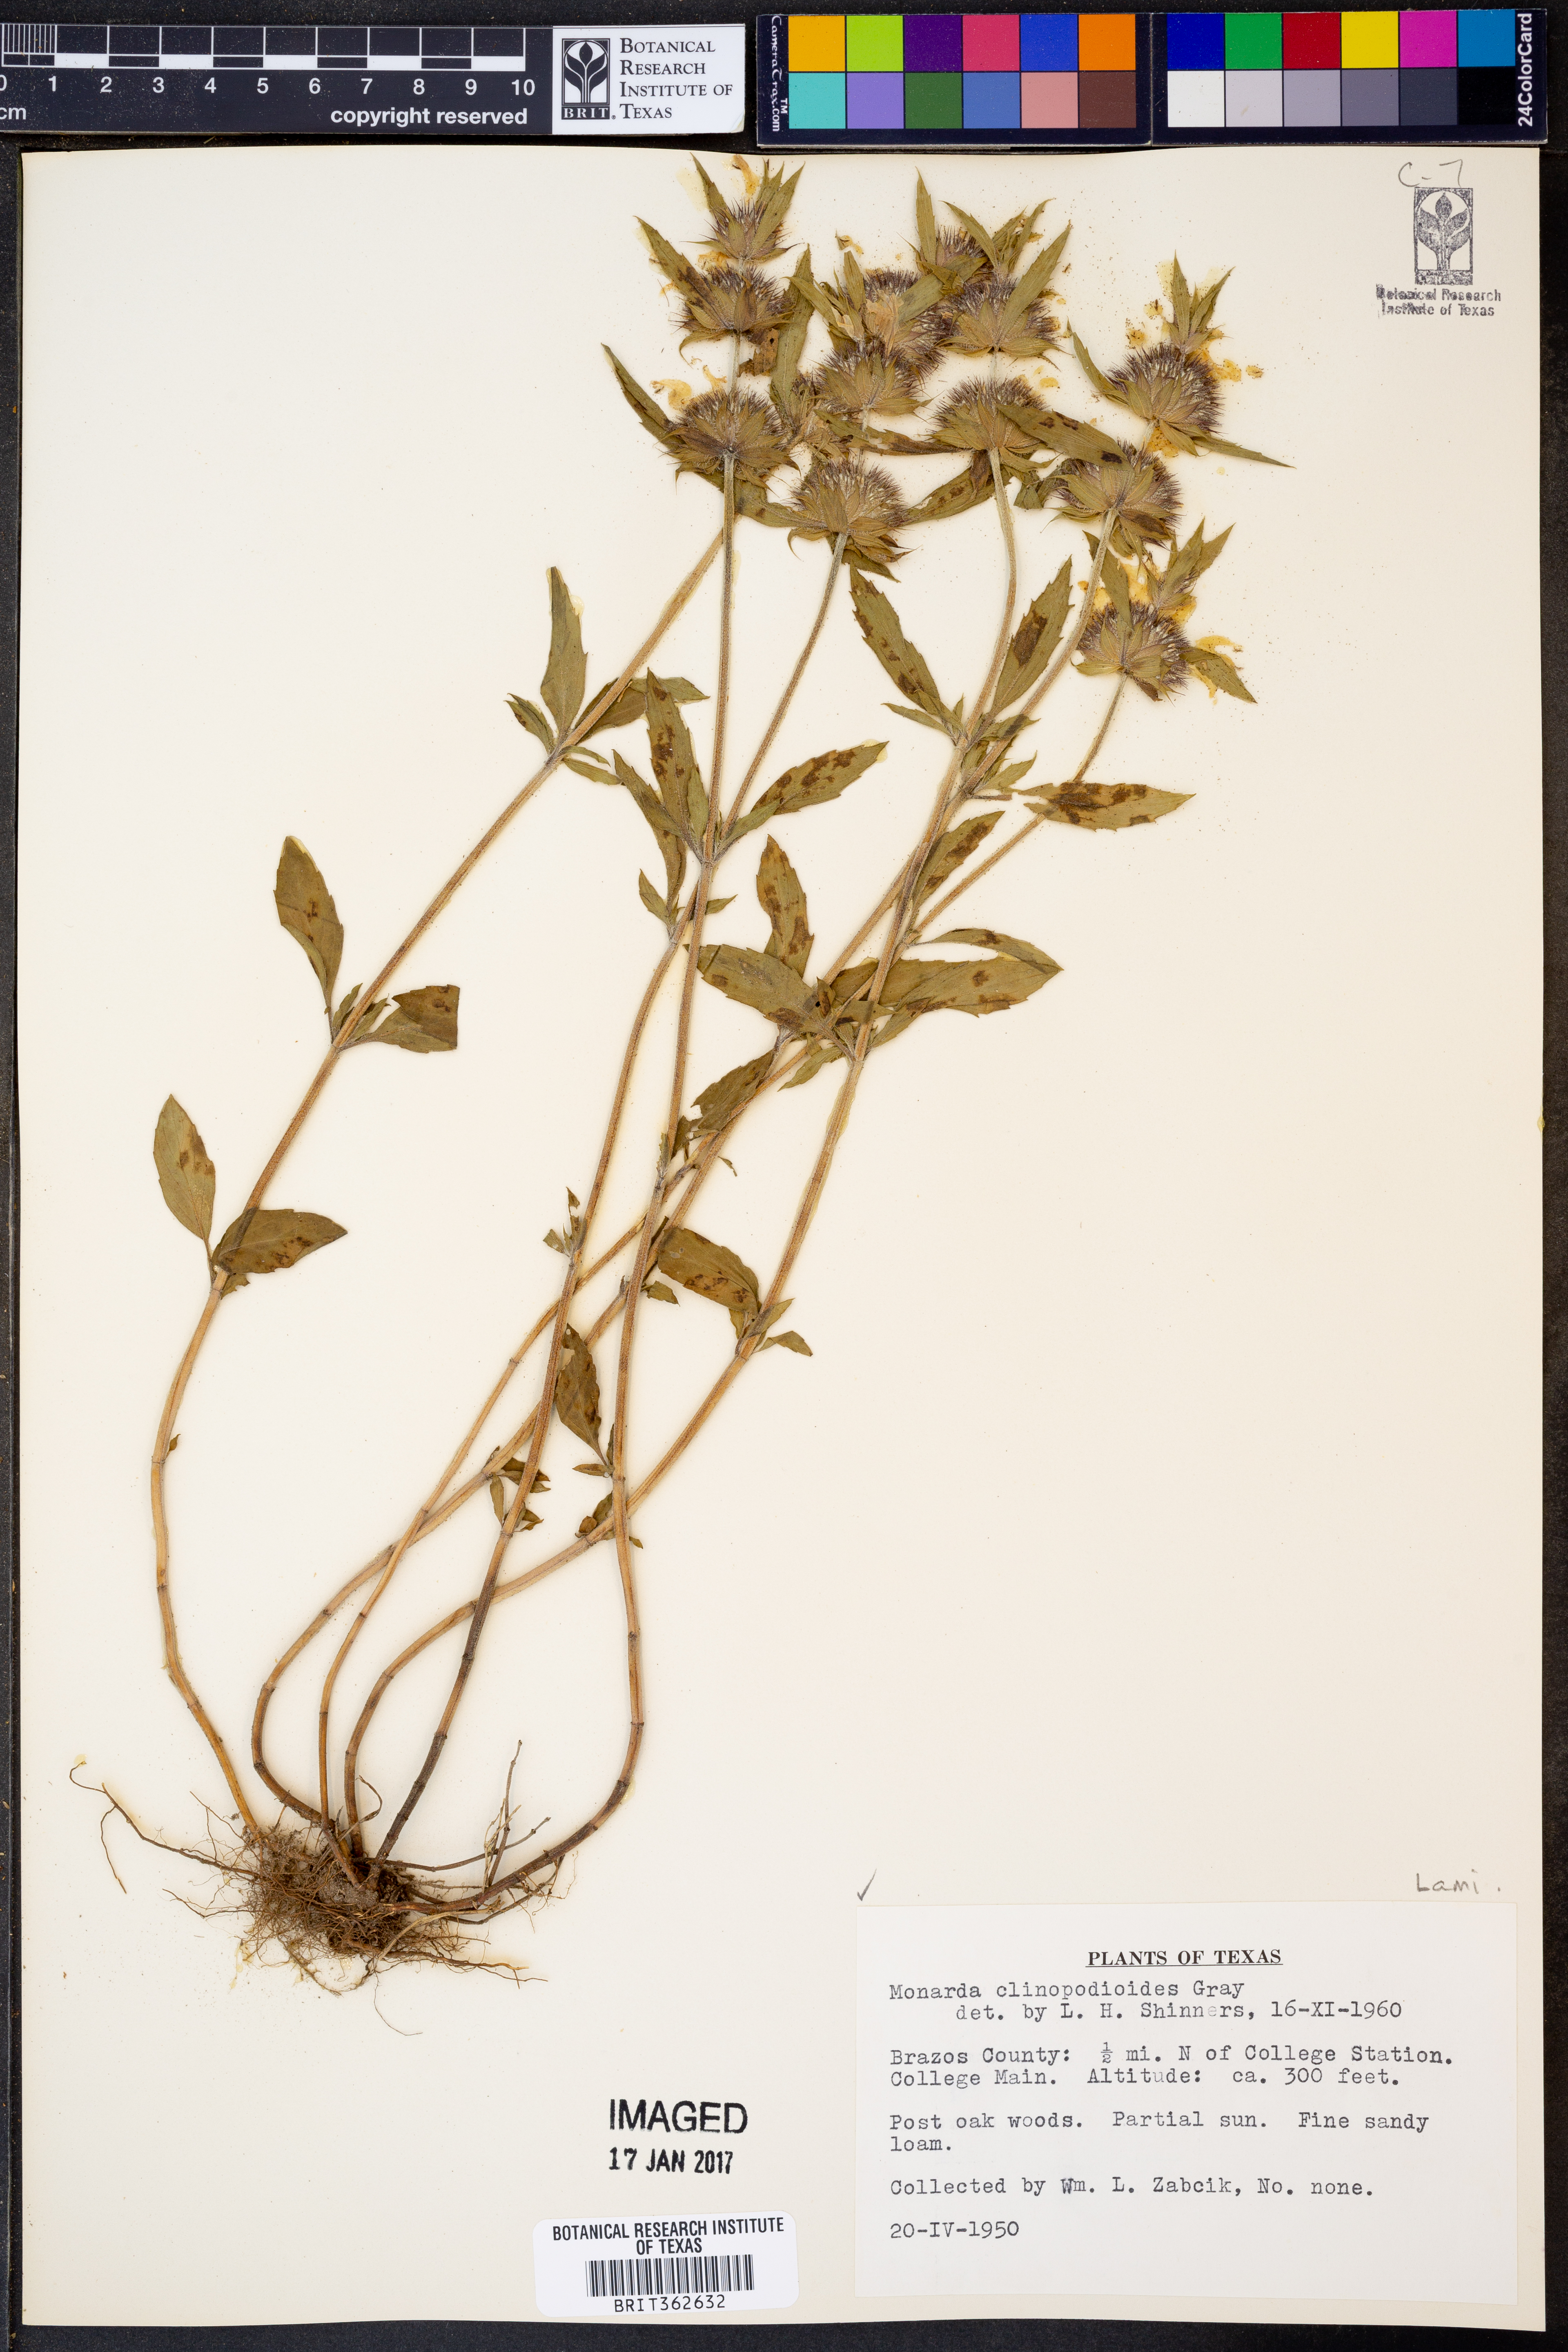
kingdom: Plantae
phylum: Tracheophyta
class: Magnoliopsida
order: Lamiales
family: Lamiaceae
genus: Monarda
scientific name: Monarda clinopodioides
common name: Basil beebalm
